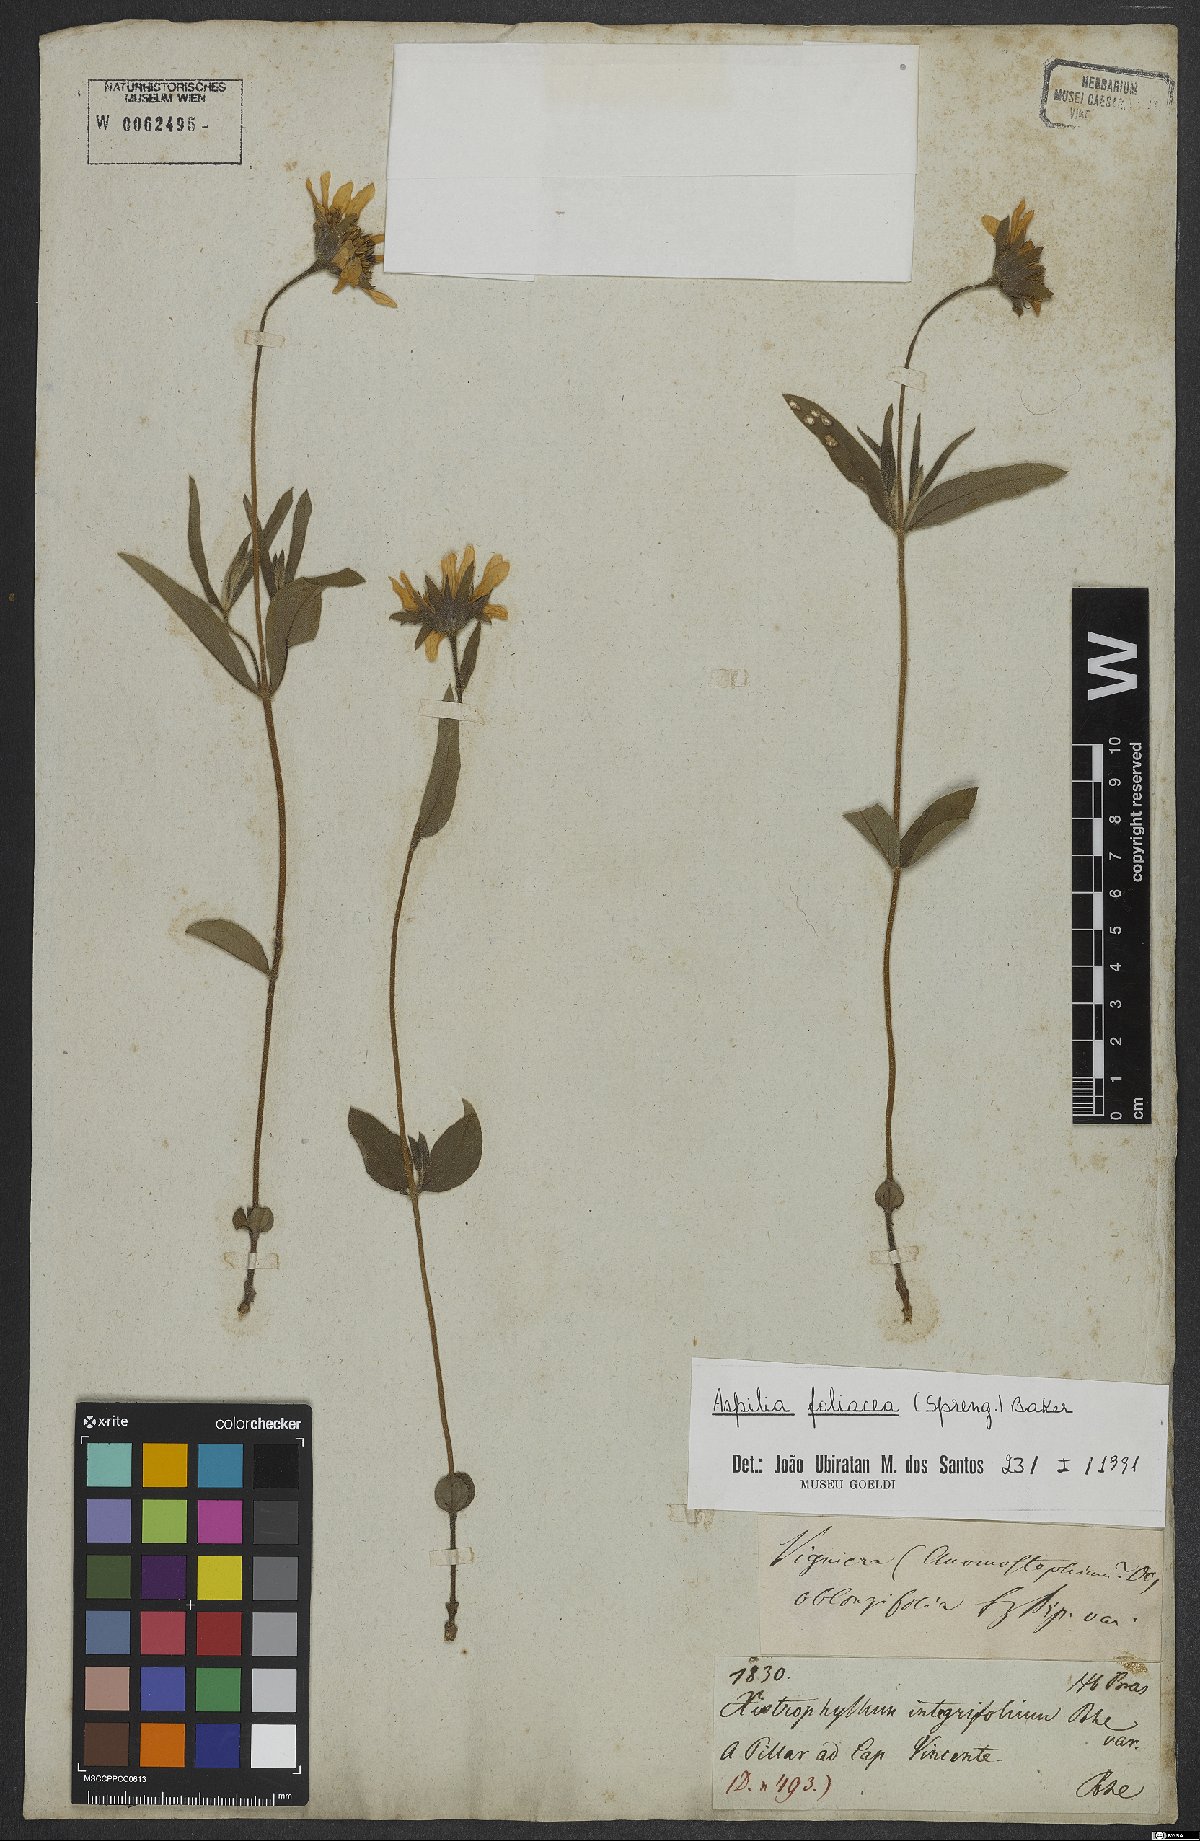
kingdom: Plantae
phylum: Tracheophyta
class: Magnoliopsida
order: Asterales
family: Asteraceae
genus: Aspilia
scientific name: Aspilia foliosa
